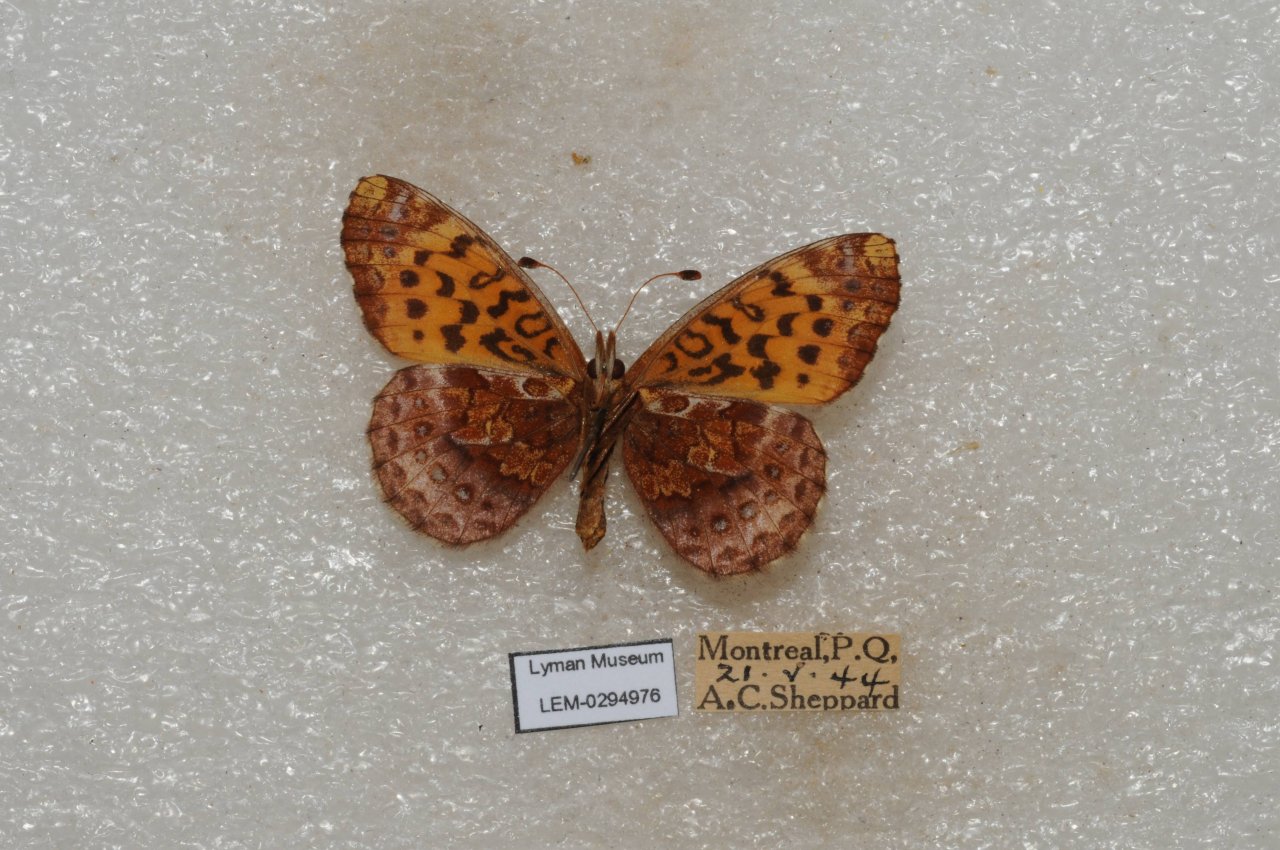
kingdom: Animalia
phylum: Arthropoda
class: Insecta
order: Lepidoptera
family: Nymphalidae
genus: Clossiana
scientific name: Clossiana toddi
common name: Meadow Fritillary
